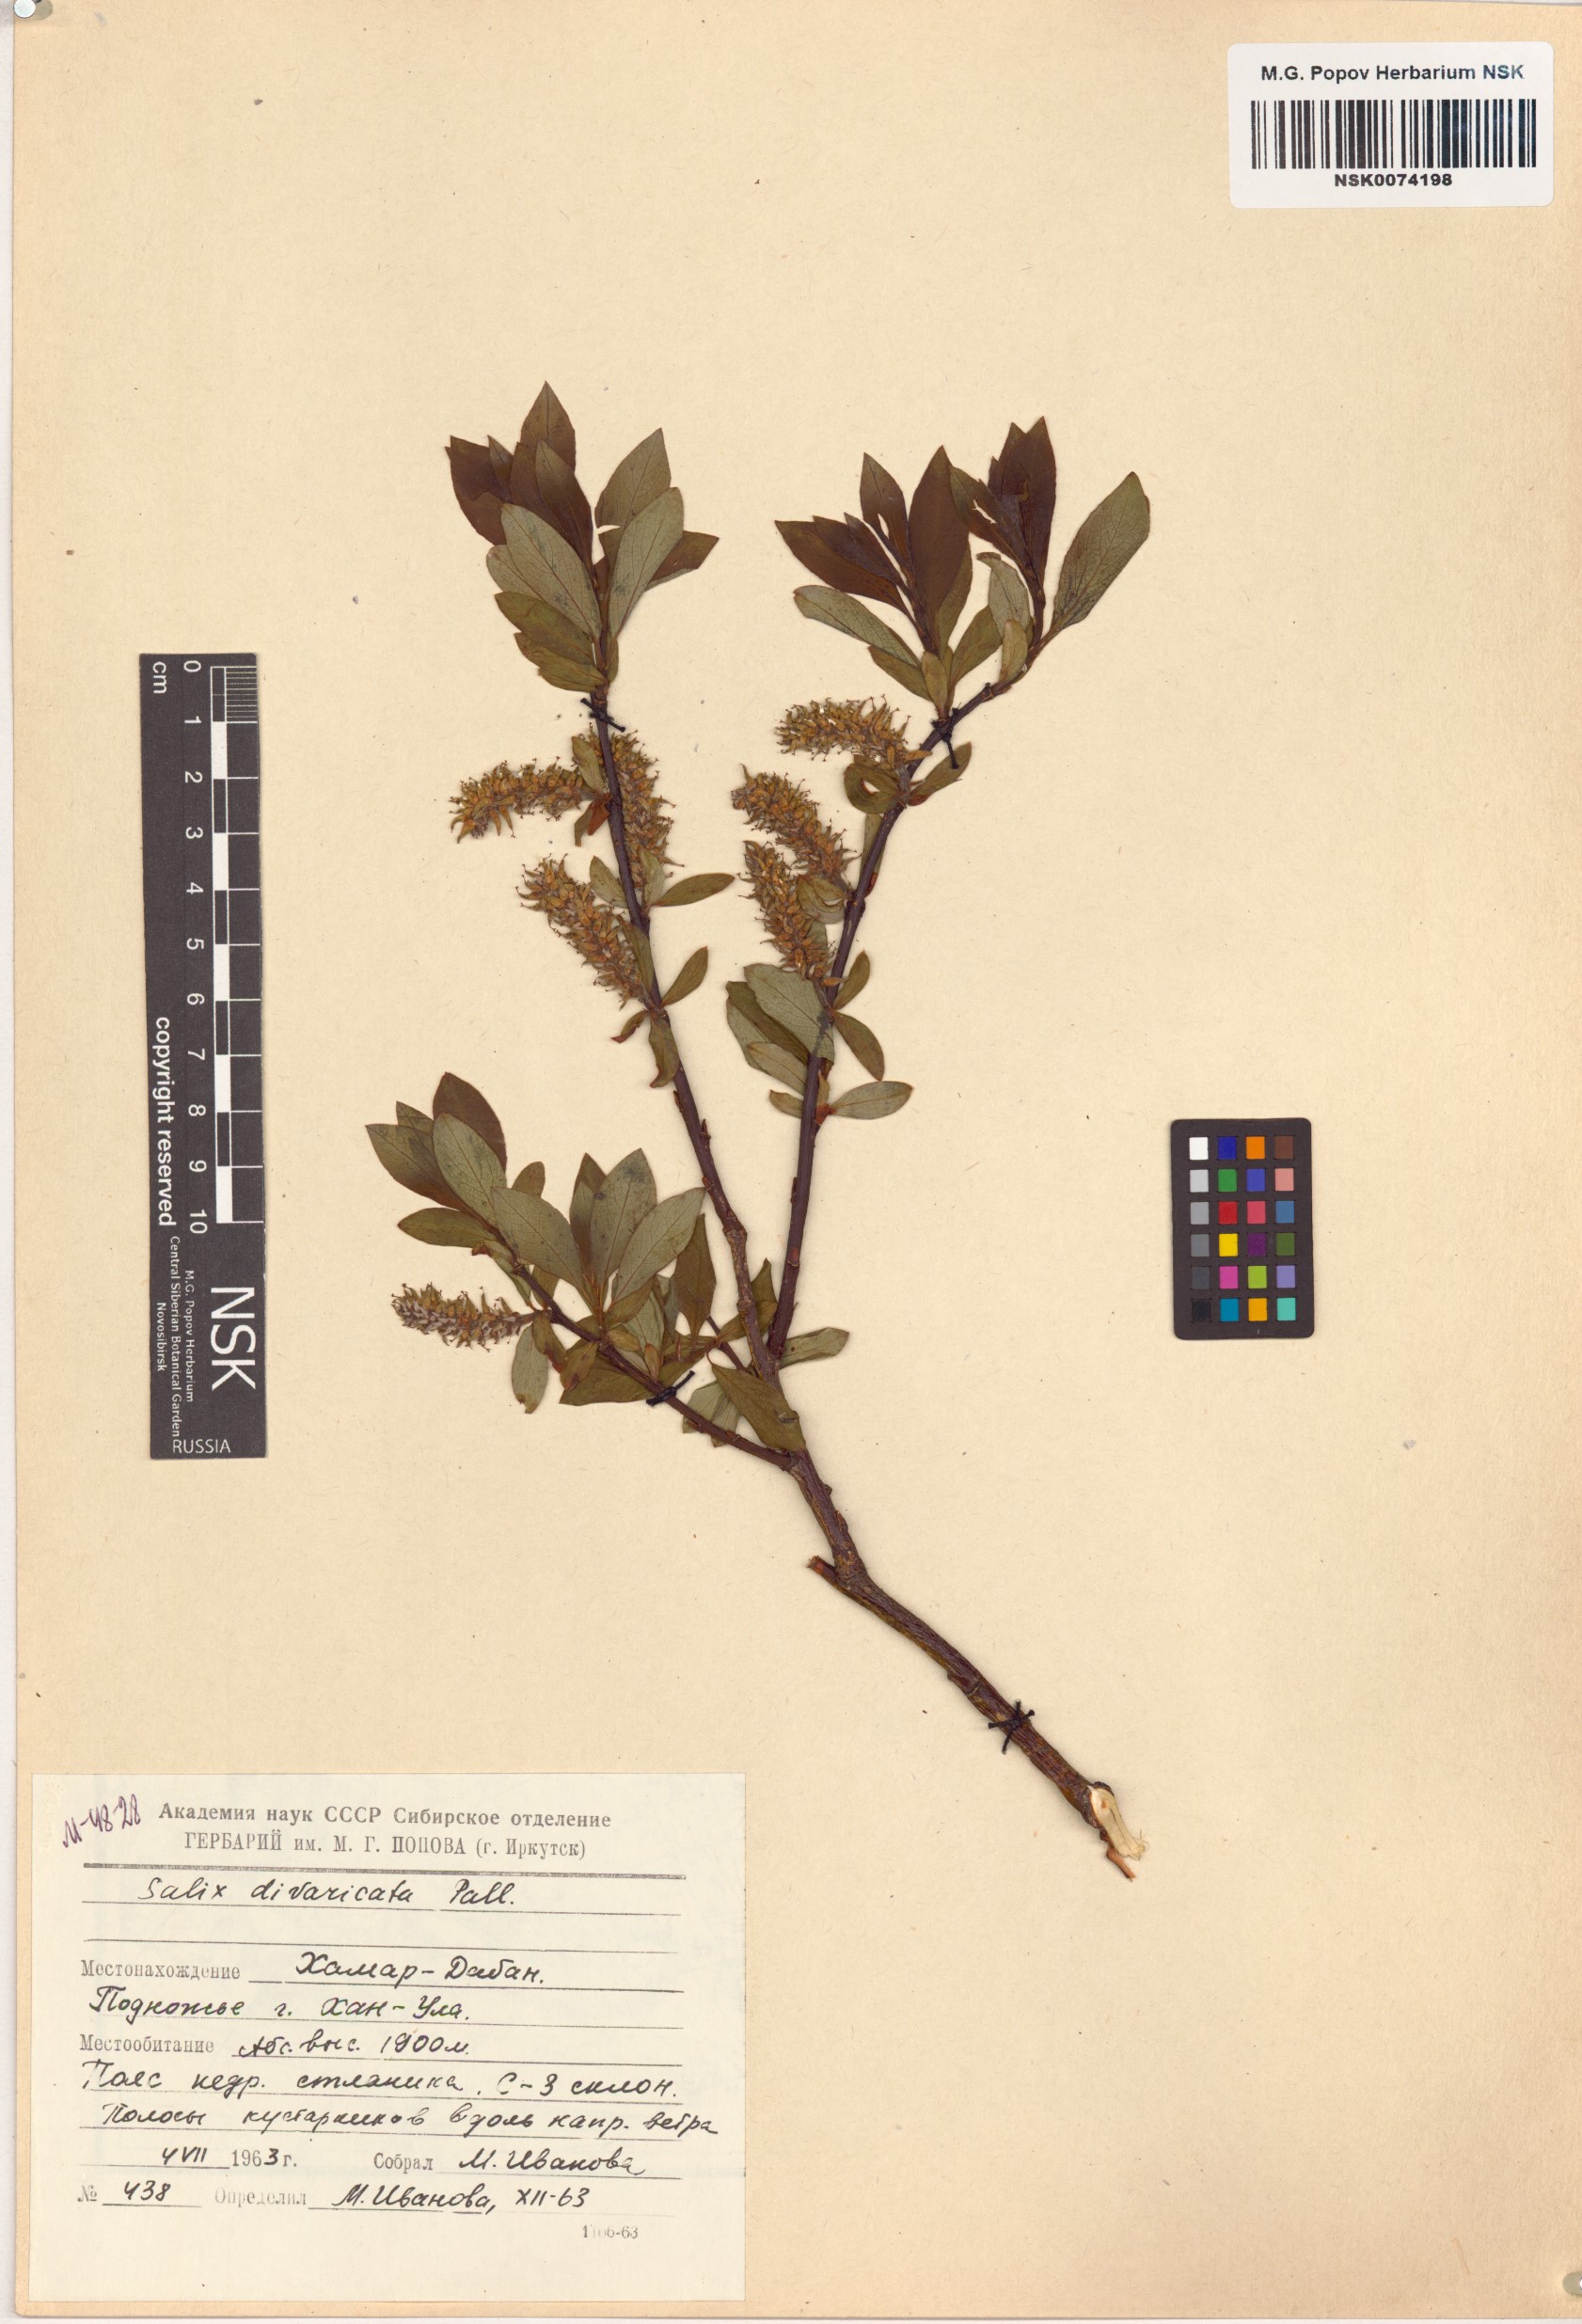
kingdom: Plantae
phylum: Tracheophyta
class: Magnoliopsida
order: Malpighiales
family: Salicaceae
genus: Salix
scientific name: Salix divaricata
